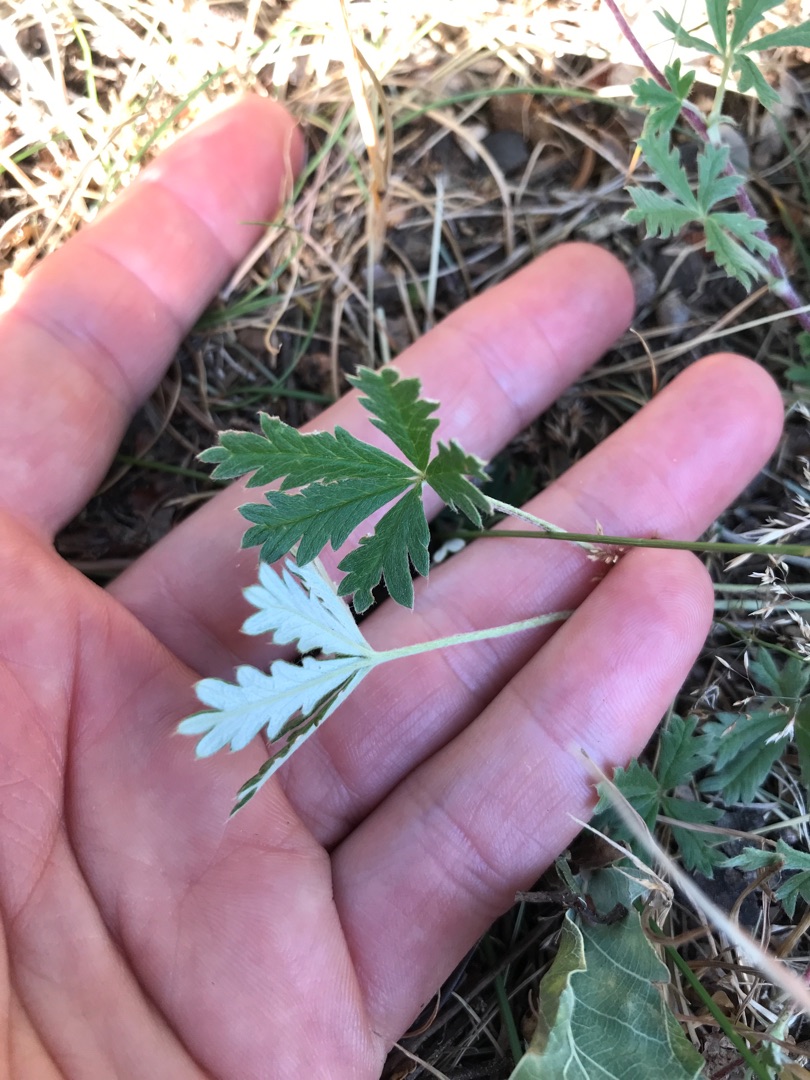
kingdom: Plantae
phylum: Tracheophyta
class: Magnoliopsida
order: Rosales
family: Rosaceae
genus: Potentilla
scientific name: Potentilla argentea
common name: Sølv-potentil
